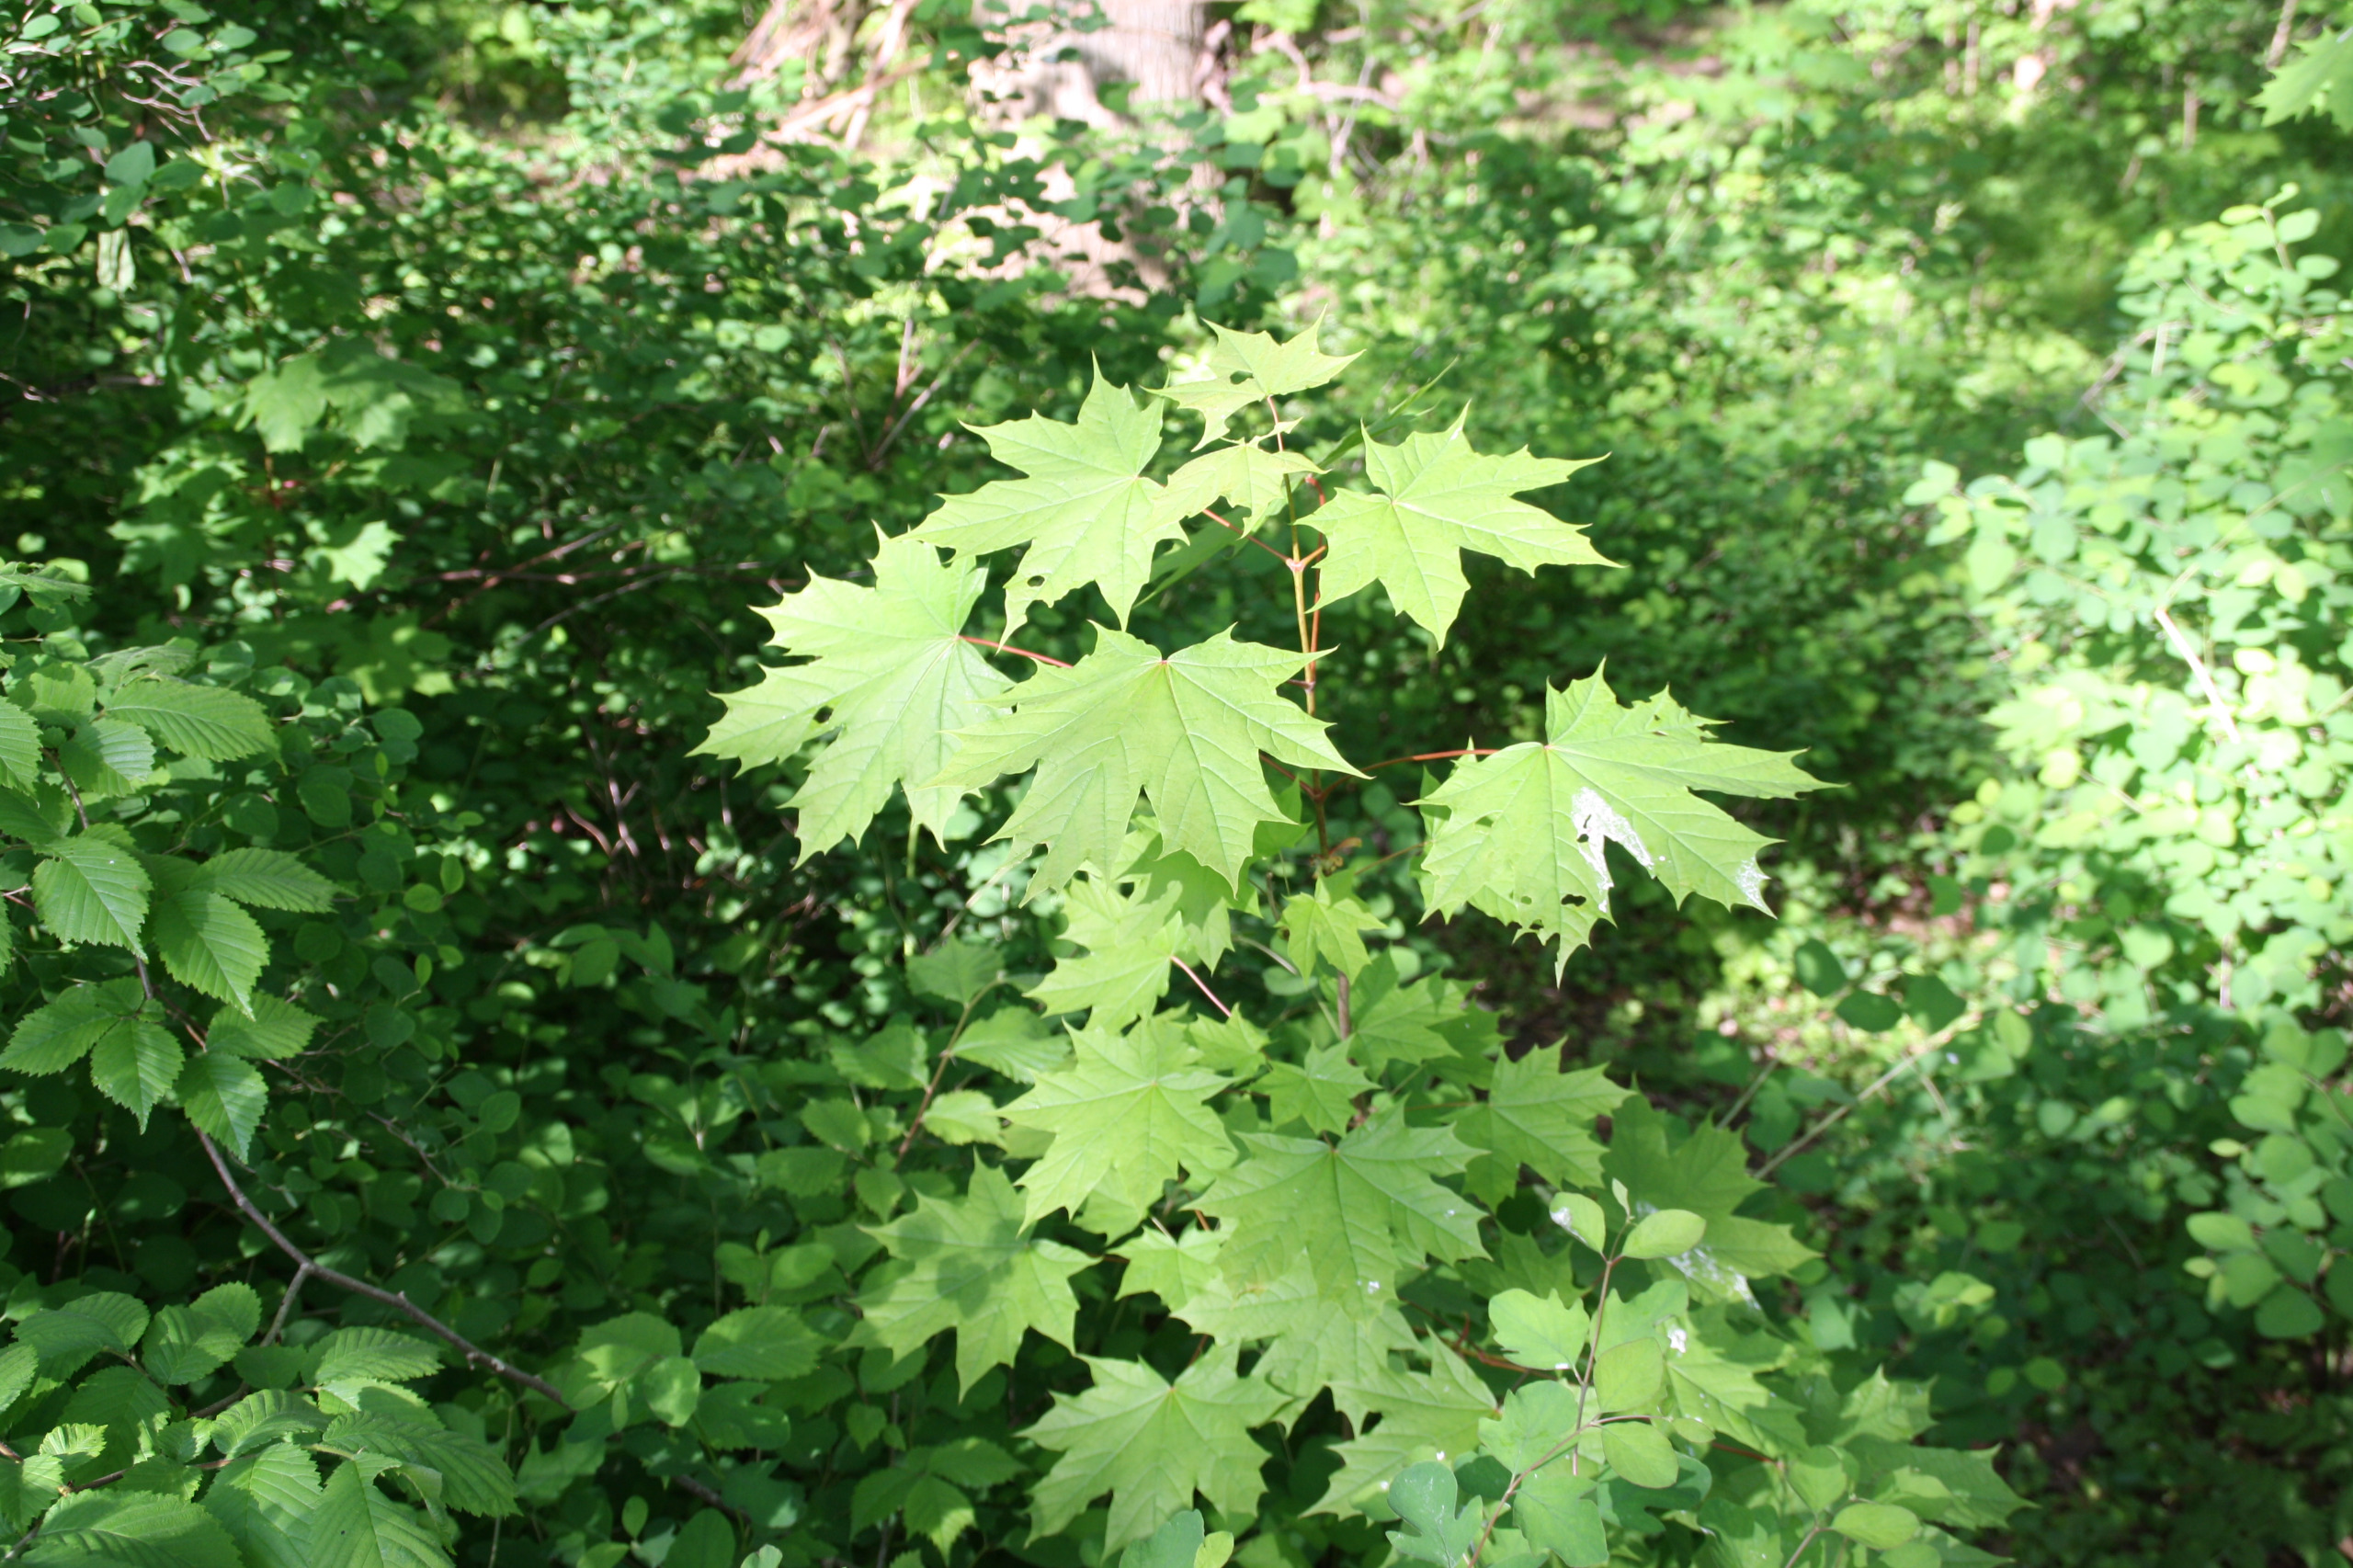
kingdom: Plantae
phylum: Tracheophyta
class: Magnoliopsida
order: Sapindales
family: Sapindaceae
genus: Acer
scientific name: Acer platanoides
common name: Spids-løn
